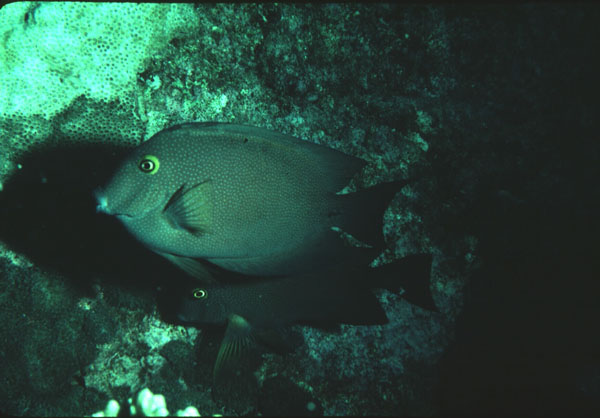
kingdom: Animalia
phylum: Chordata
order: Perciformes
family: Acanthuridae
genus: Ctenochaetus
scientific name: Ctenochaetus truncatus
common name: Indian gold-ring bristle-tooth
